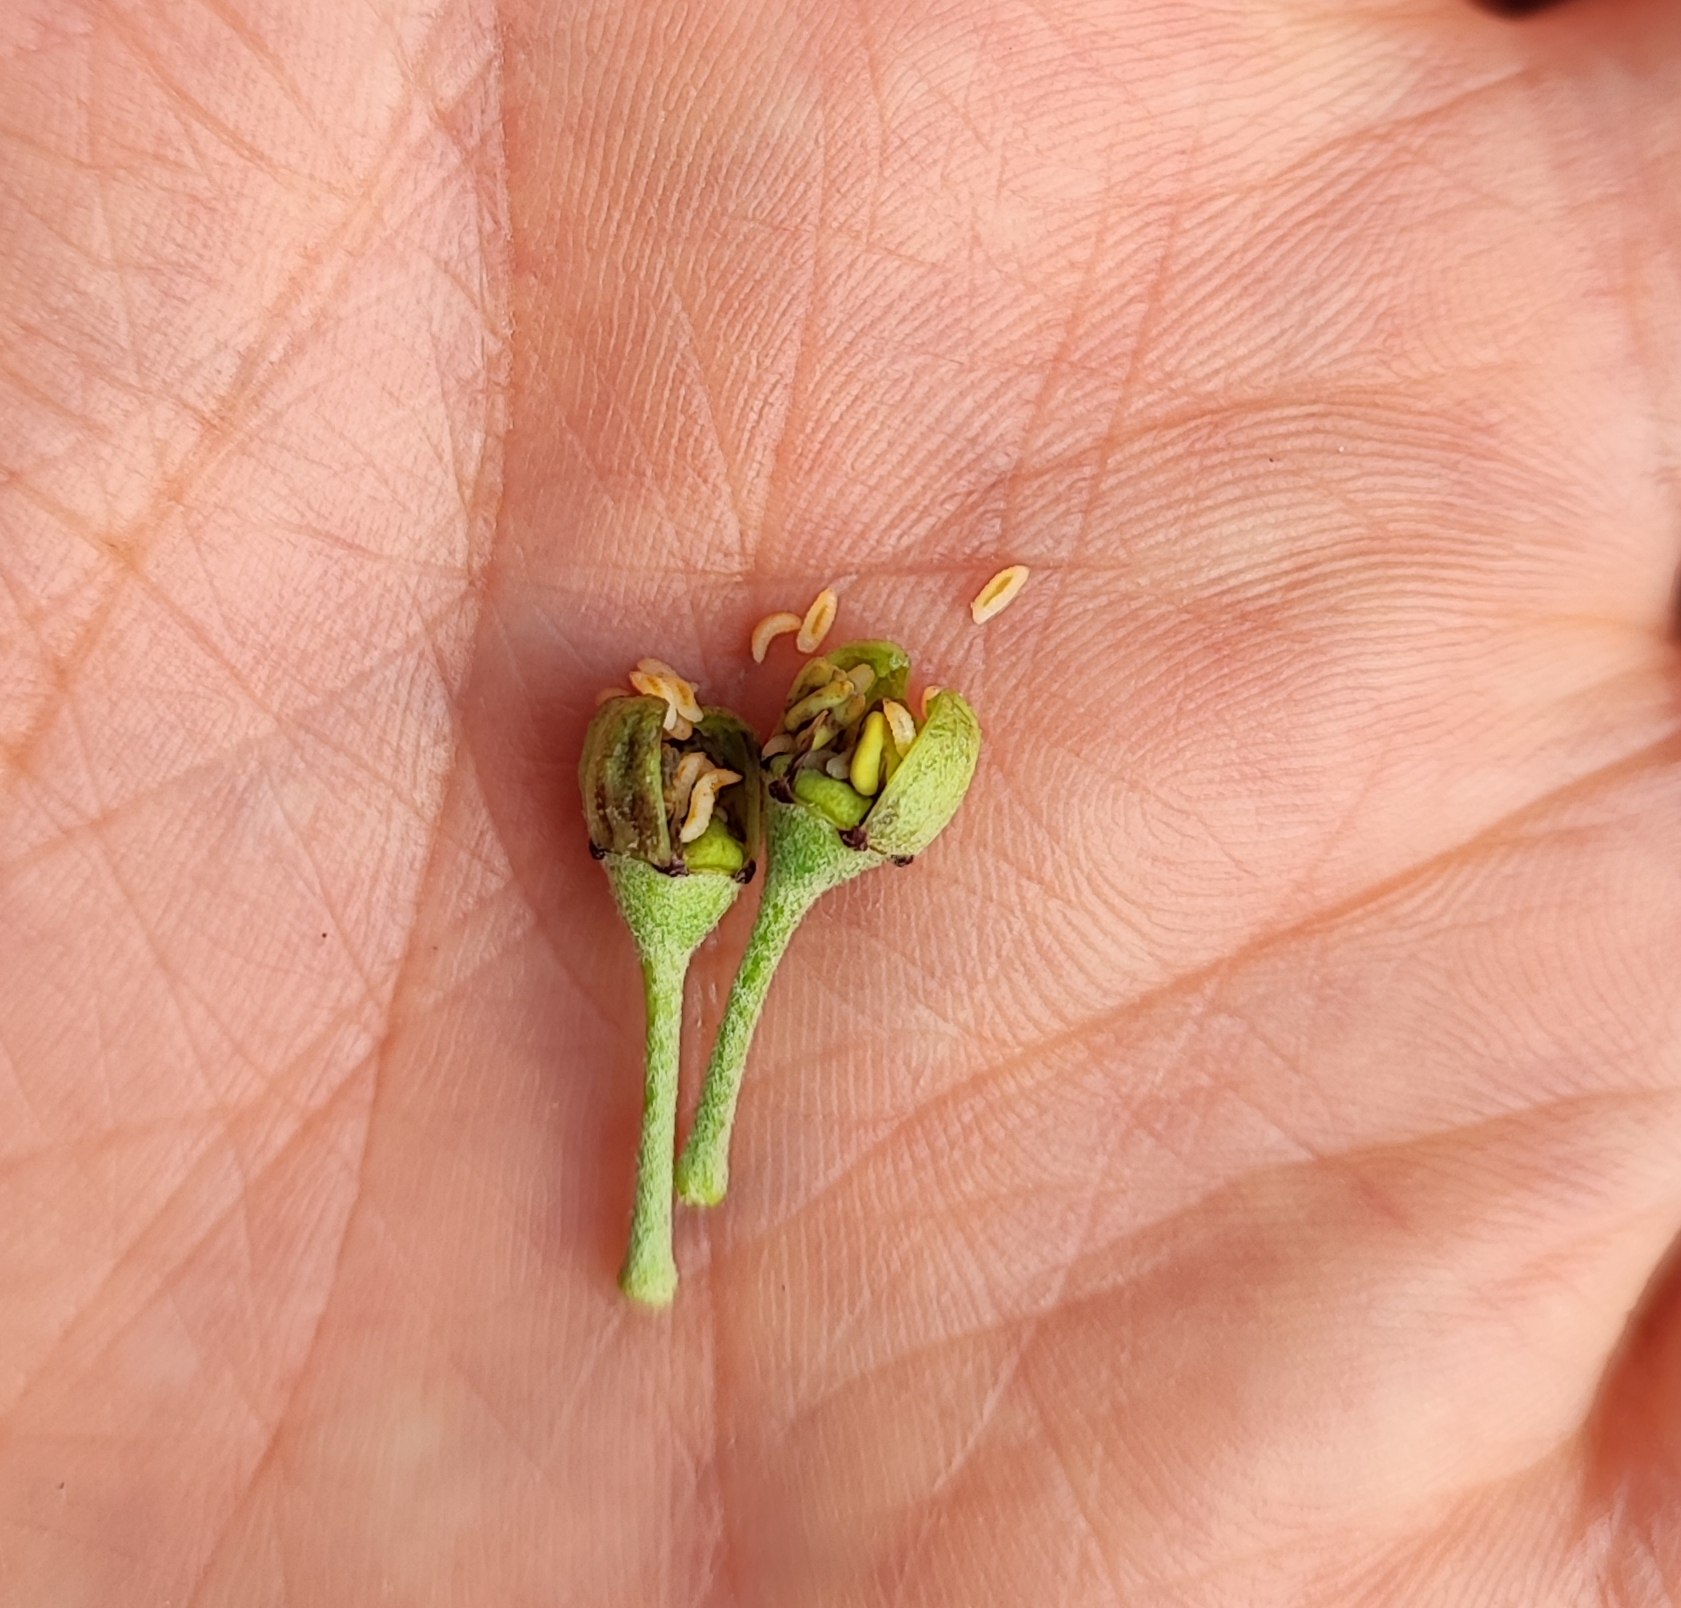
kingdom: Animalia
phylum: Arthropoda
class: Insecta
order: Diptera
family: Cecidomyiidae
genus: Dasineura
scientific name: Dasineura kiefferi
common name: Vedbendgalmyg
